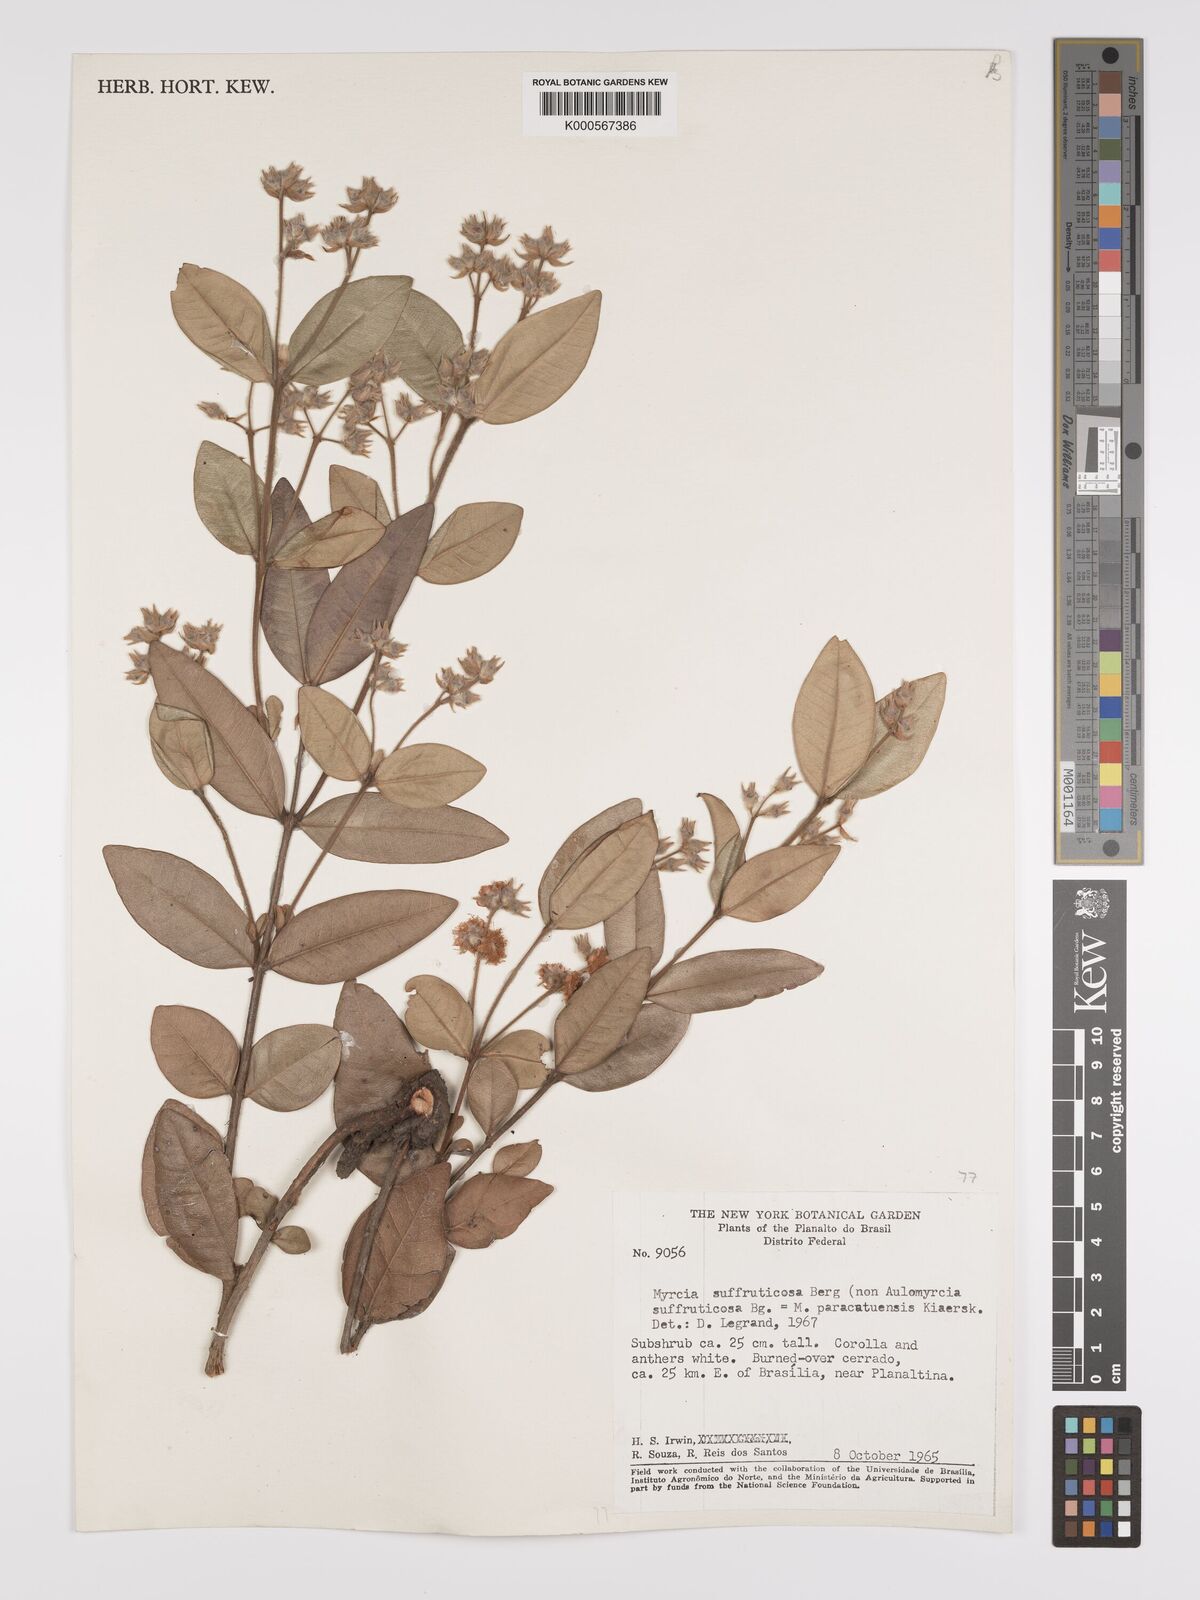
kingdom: Plantae
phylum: Tracheophyta
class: Magnoliopsida
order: Myrtales
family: Myrtaceae
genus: Myrcia
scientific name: Myrcia suffruticosa
